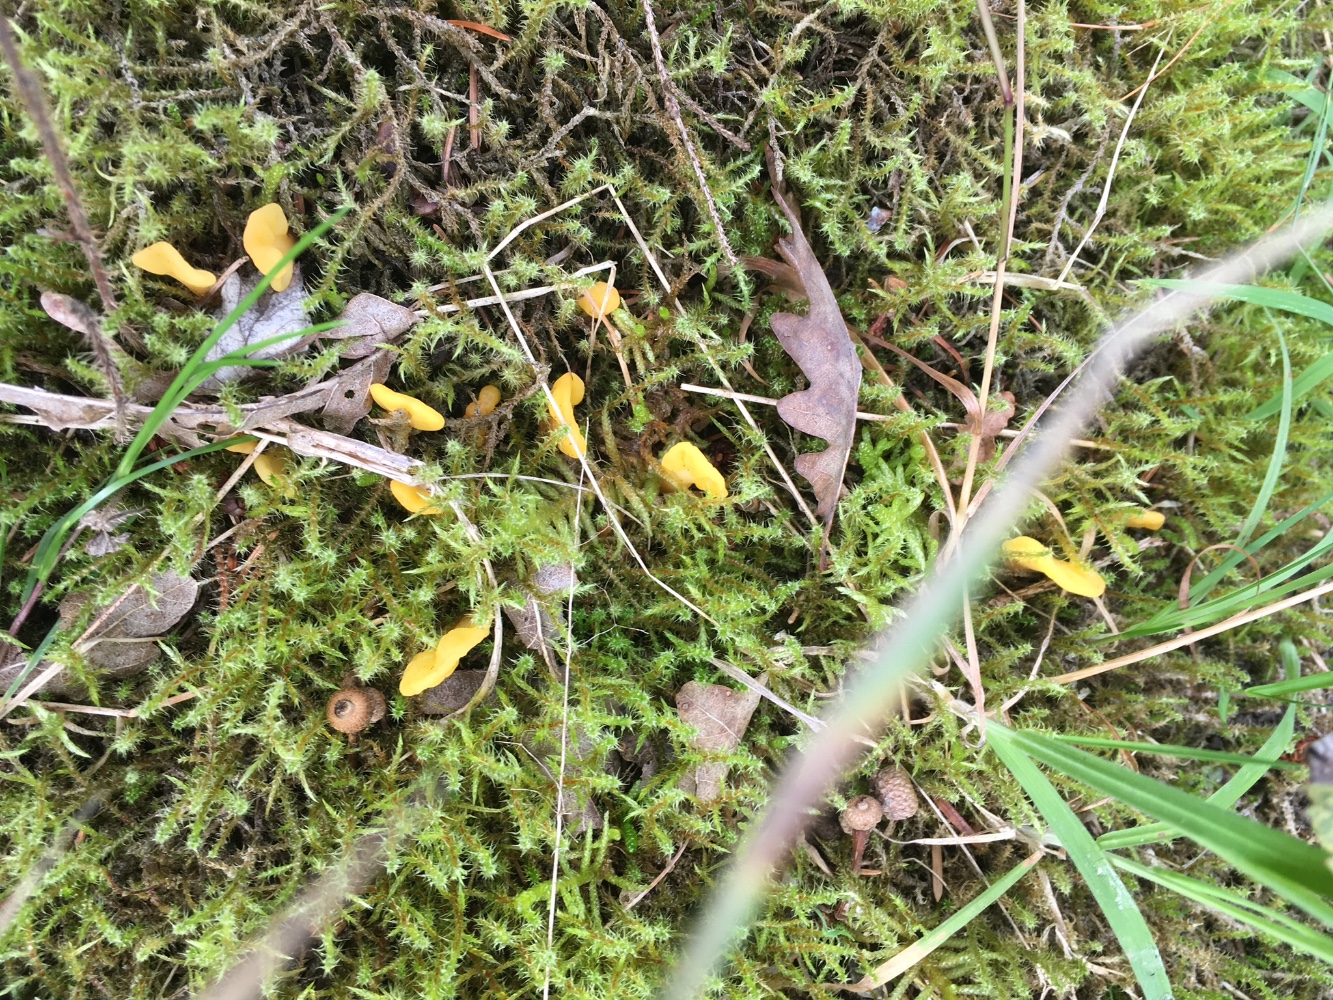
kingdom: Fungi
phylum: Ascomycota
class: Leotiomycetes
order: Rhytismatales
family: Cudoniaceae
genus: Spathularia
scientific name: Spathularia flavida
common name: gul spatelsvamp
